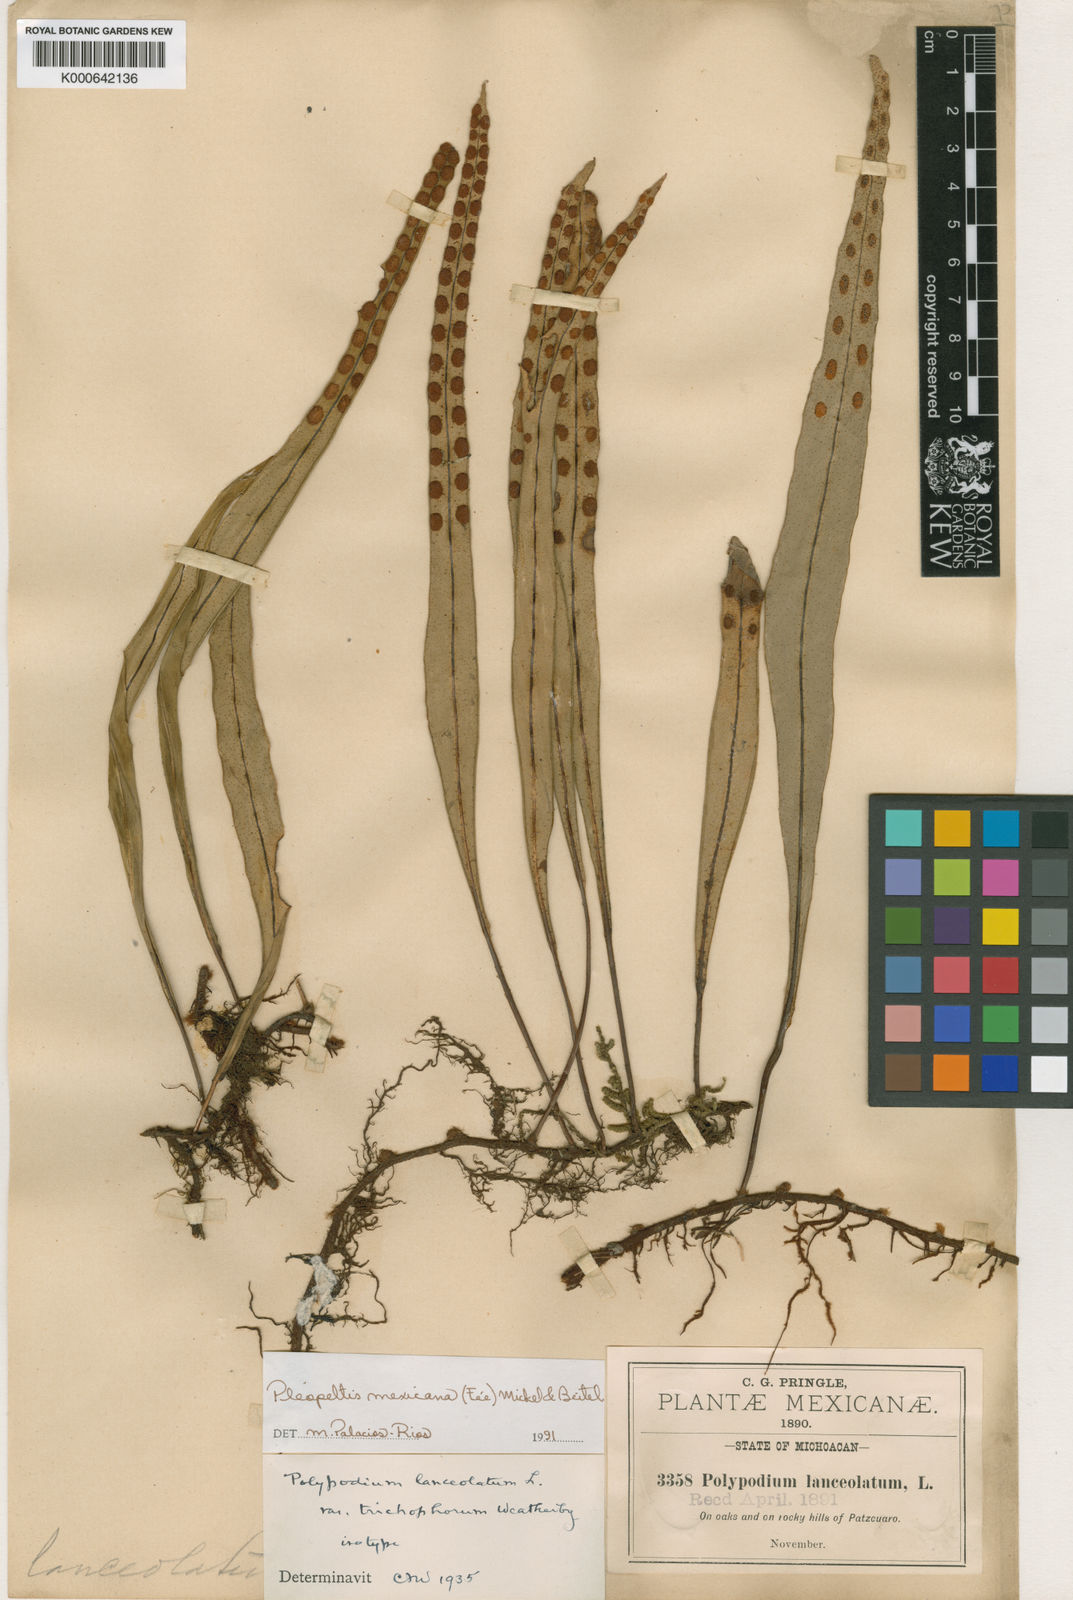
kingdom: Plantae
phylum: Tracheophyta
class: Polypodiopsida
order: Polypodiales
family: Polypodiaceae
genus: Pleopeltis
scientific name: Pleopeltis macrocarpa
